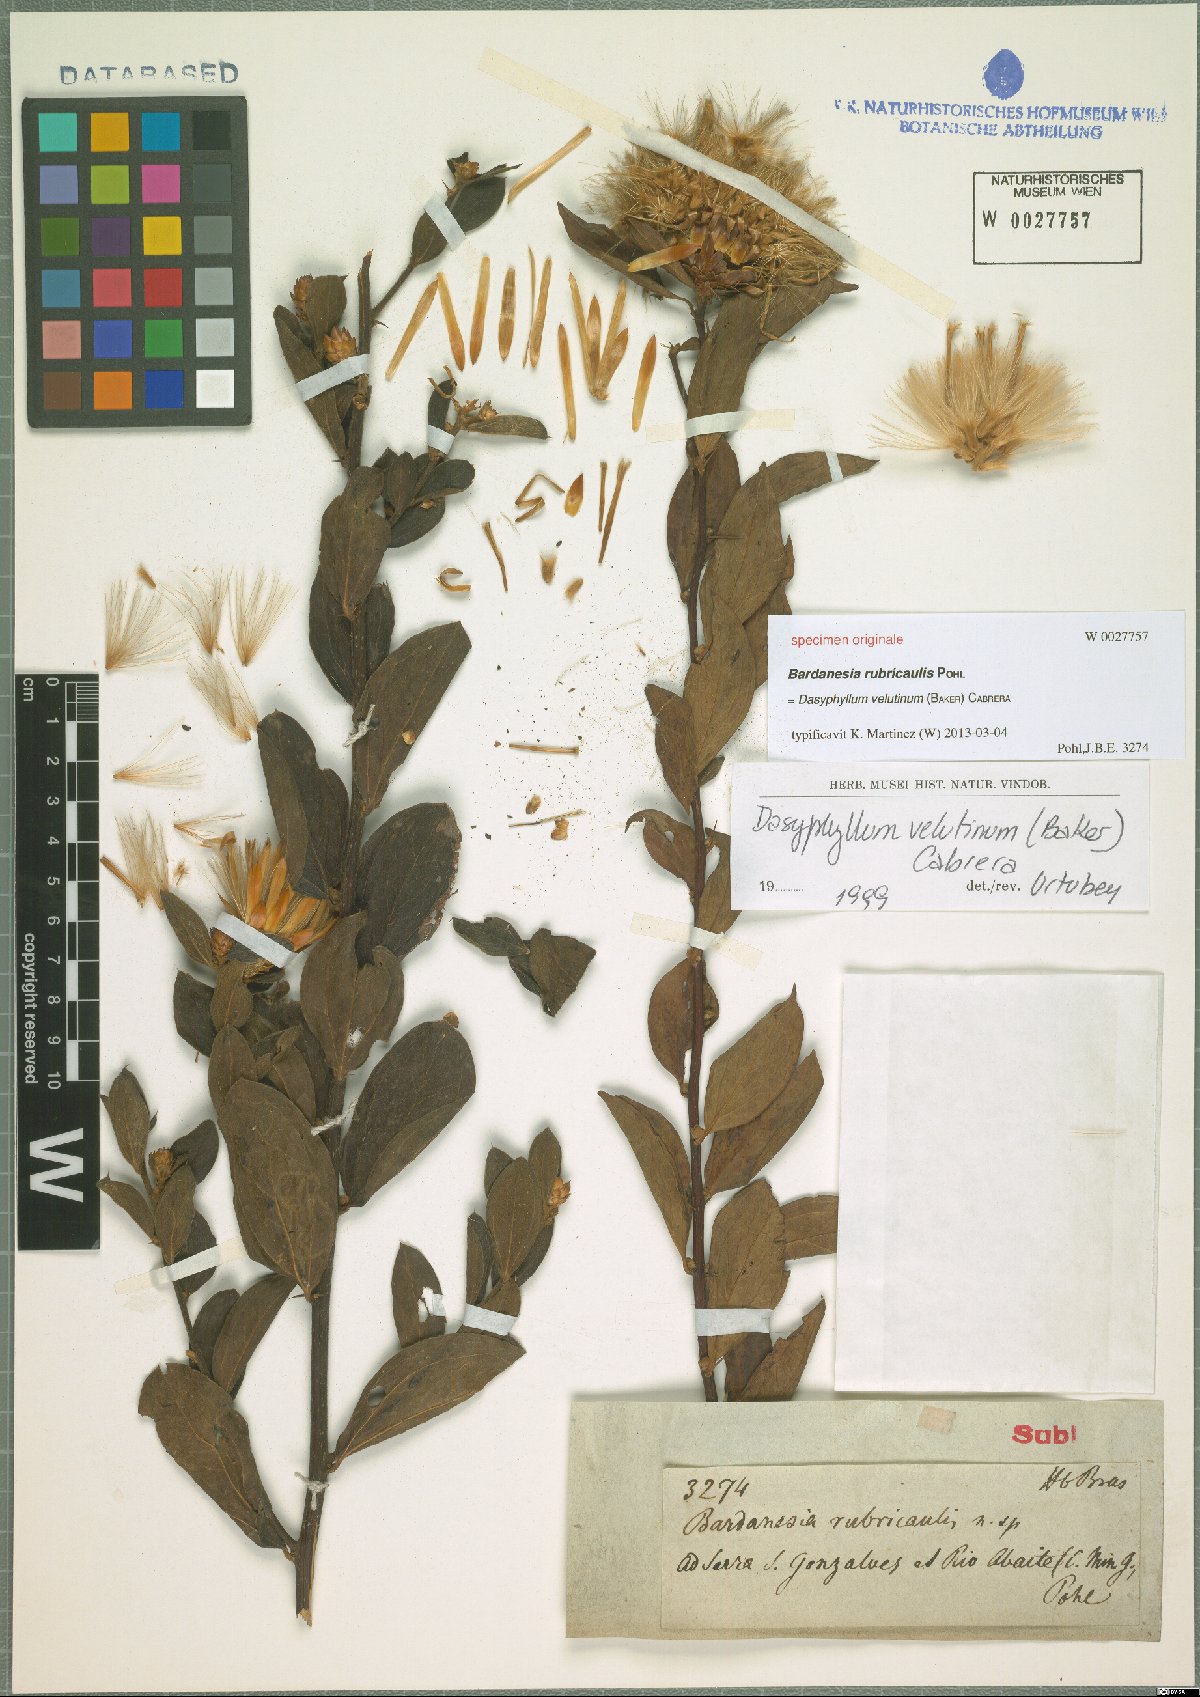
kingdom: Plantae
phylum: Tracheophyta
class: Magnoliopsida
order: Asterales
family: Asteraceae
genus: Dasyphyllum
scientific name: Dasyphyllum velutinum
